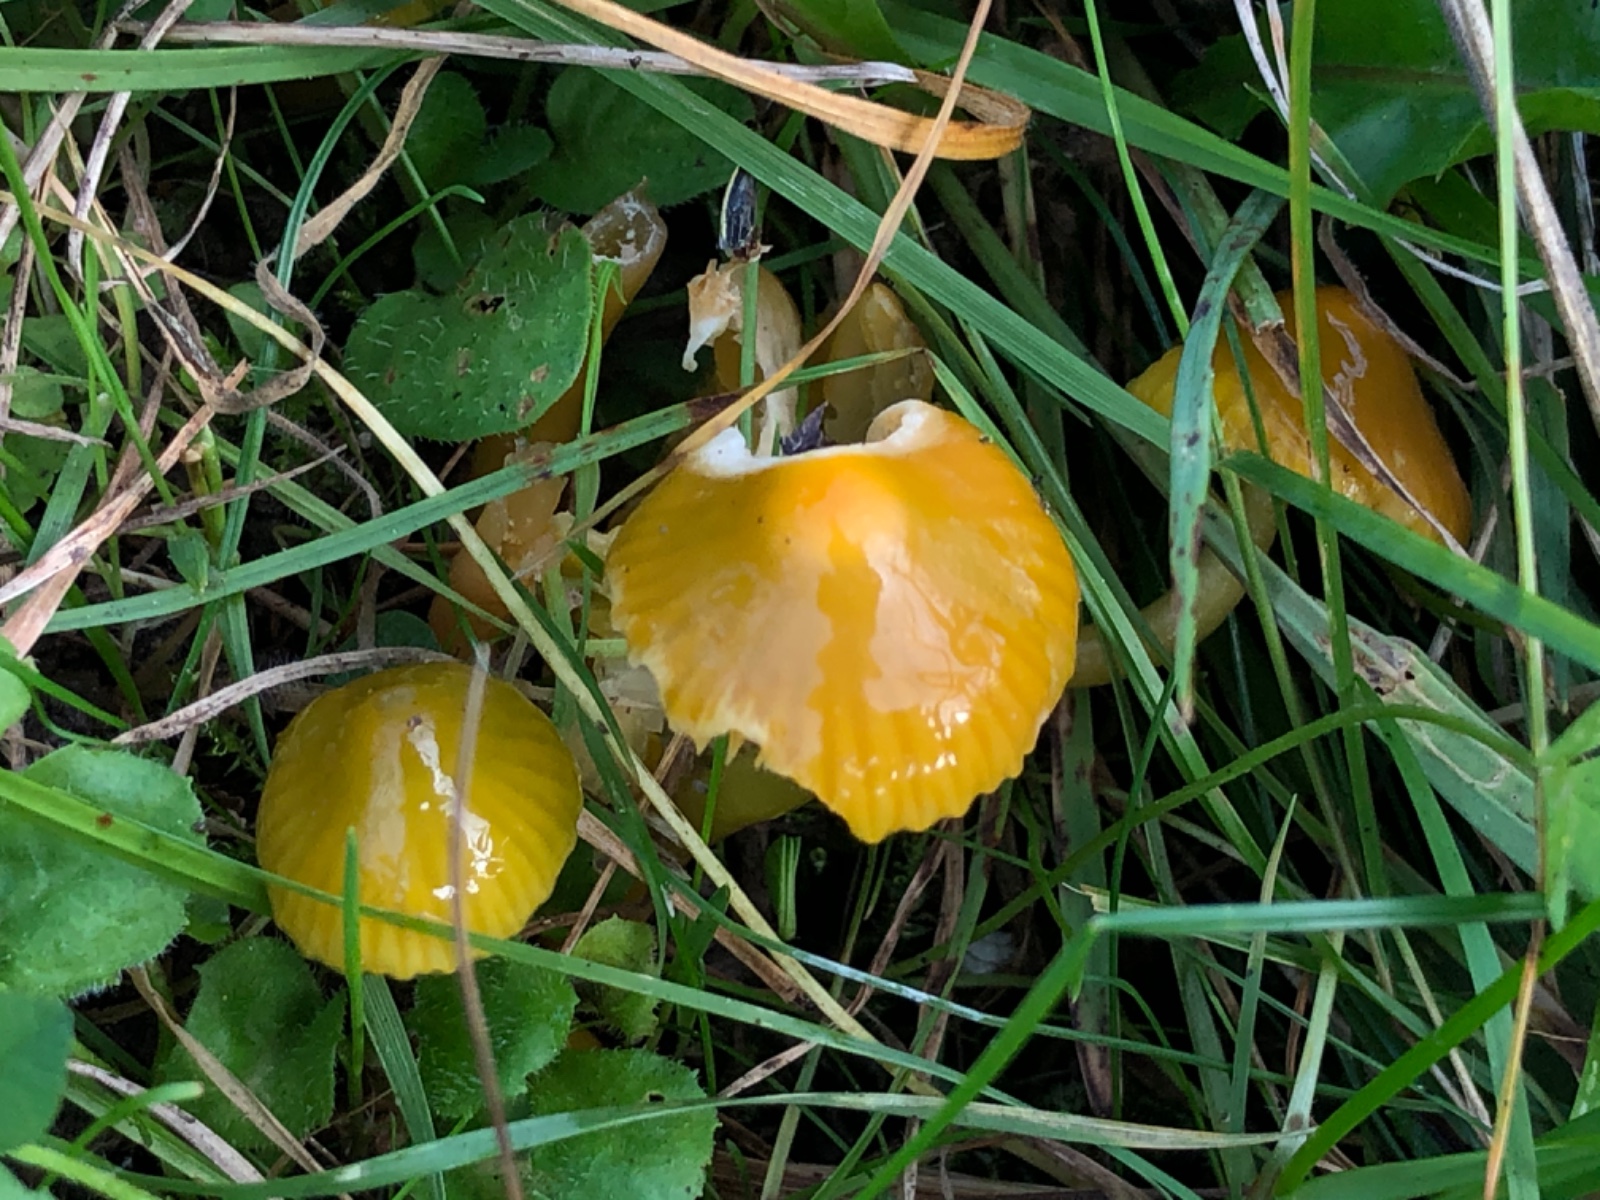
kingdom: Fungi
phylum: Basidiomycota
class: Agaricomycetes
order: Agaricales
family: Hygrophoraceae
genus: Gliophorus
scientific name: Gliophorus psittacinus
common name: papegøje-vokshat
